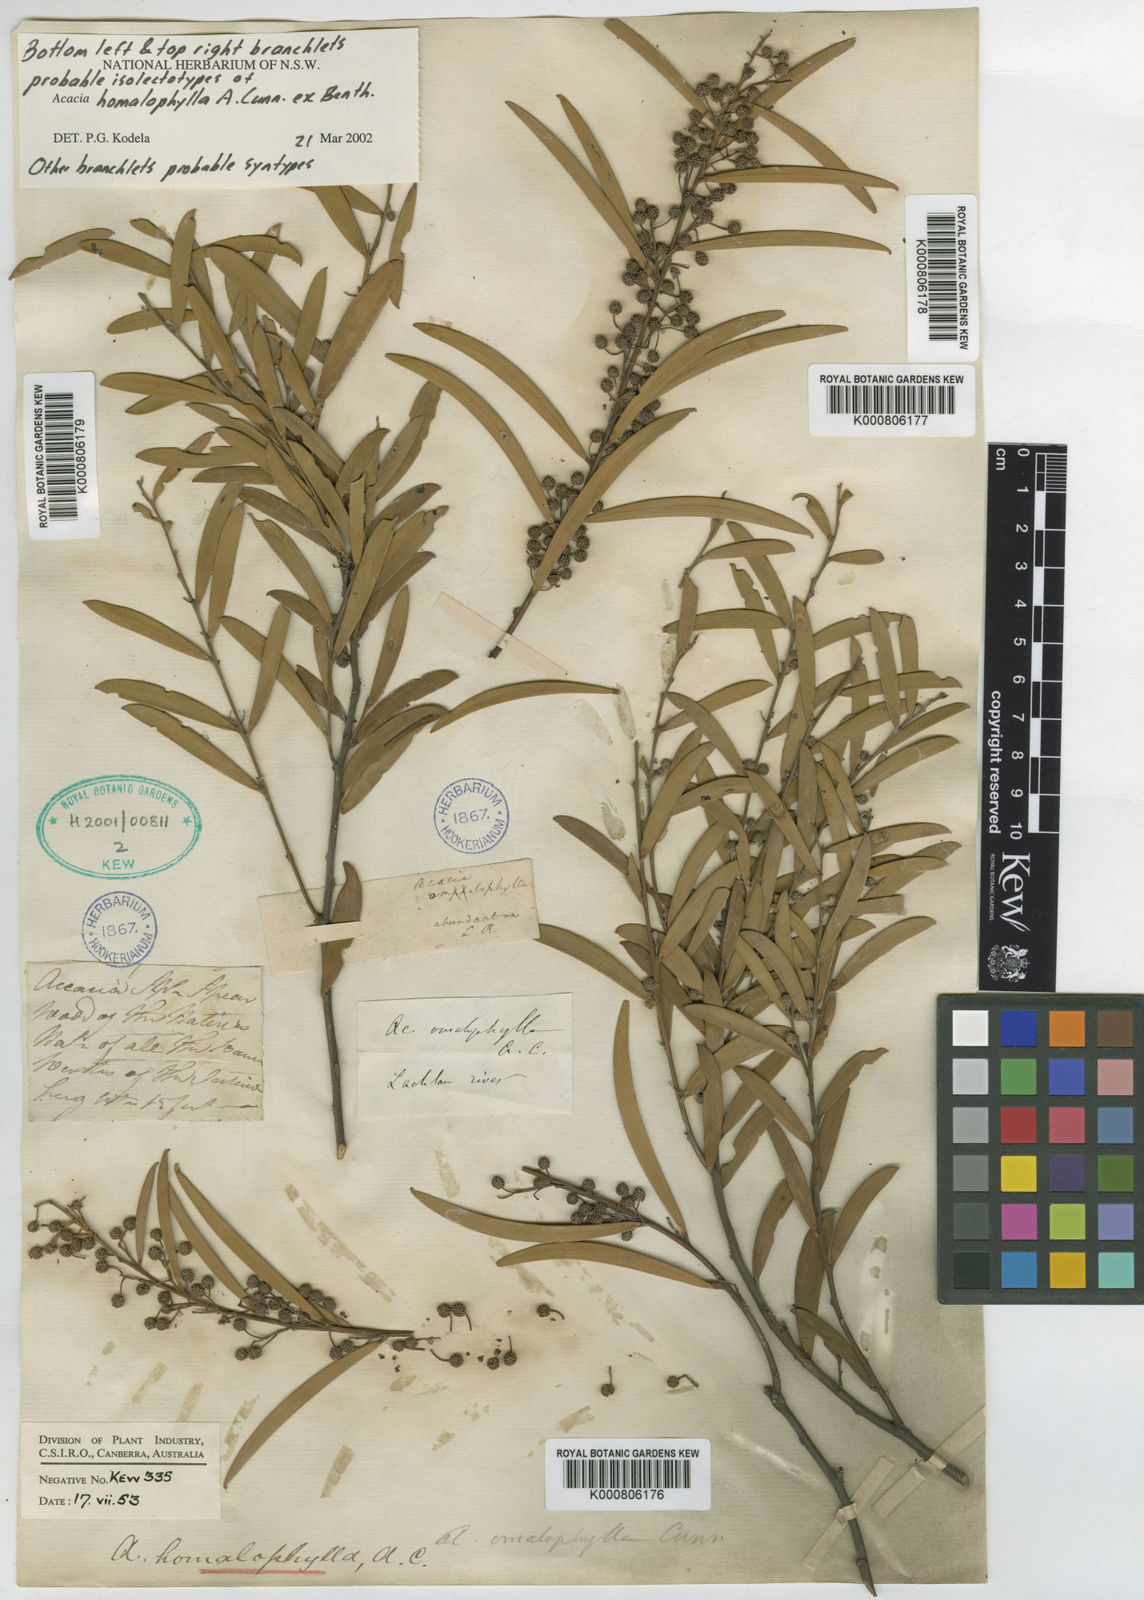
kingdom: Plantae
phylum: Tracheophyta
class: Magnoliopsida
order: Fabales
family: Fabaceae
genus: Acacia
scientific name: Acacia homalophylla
